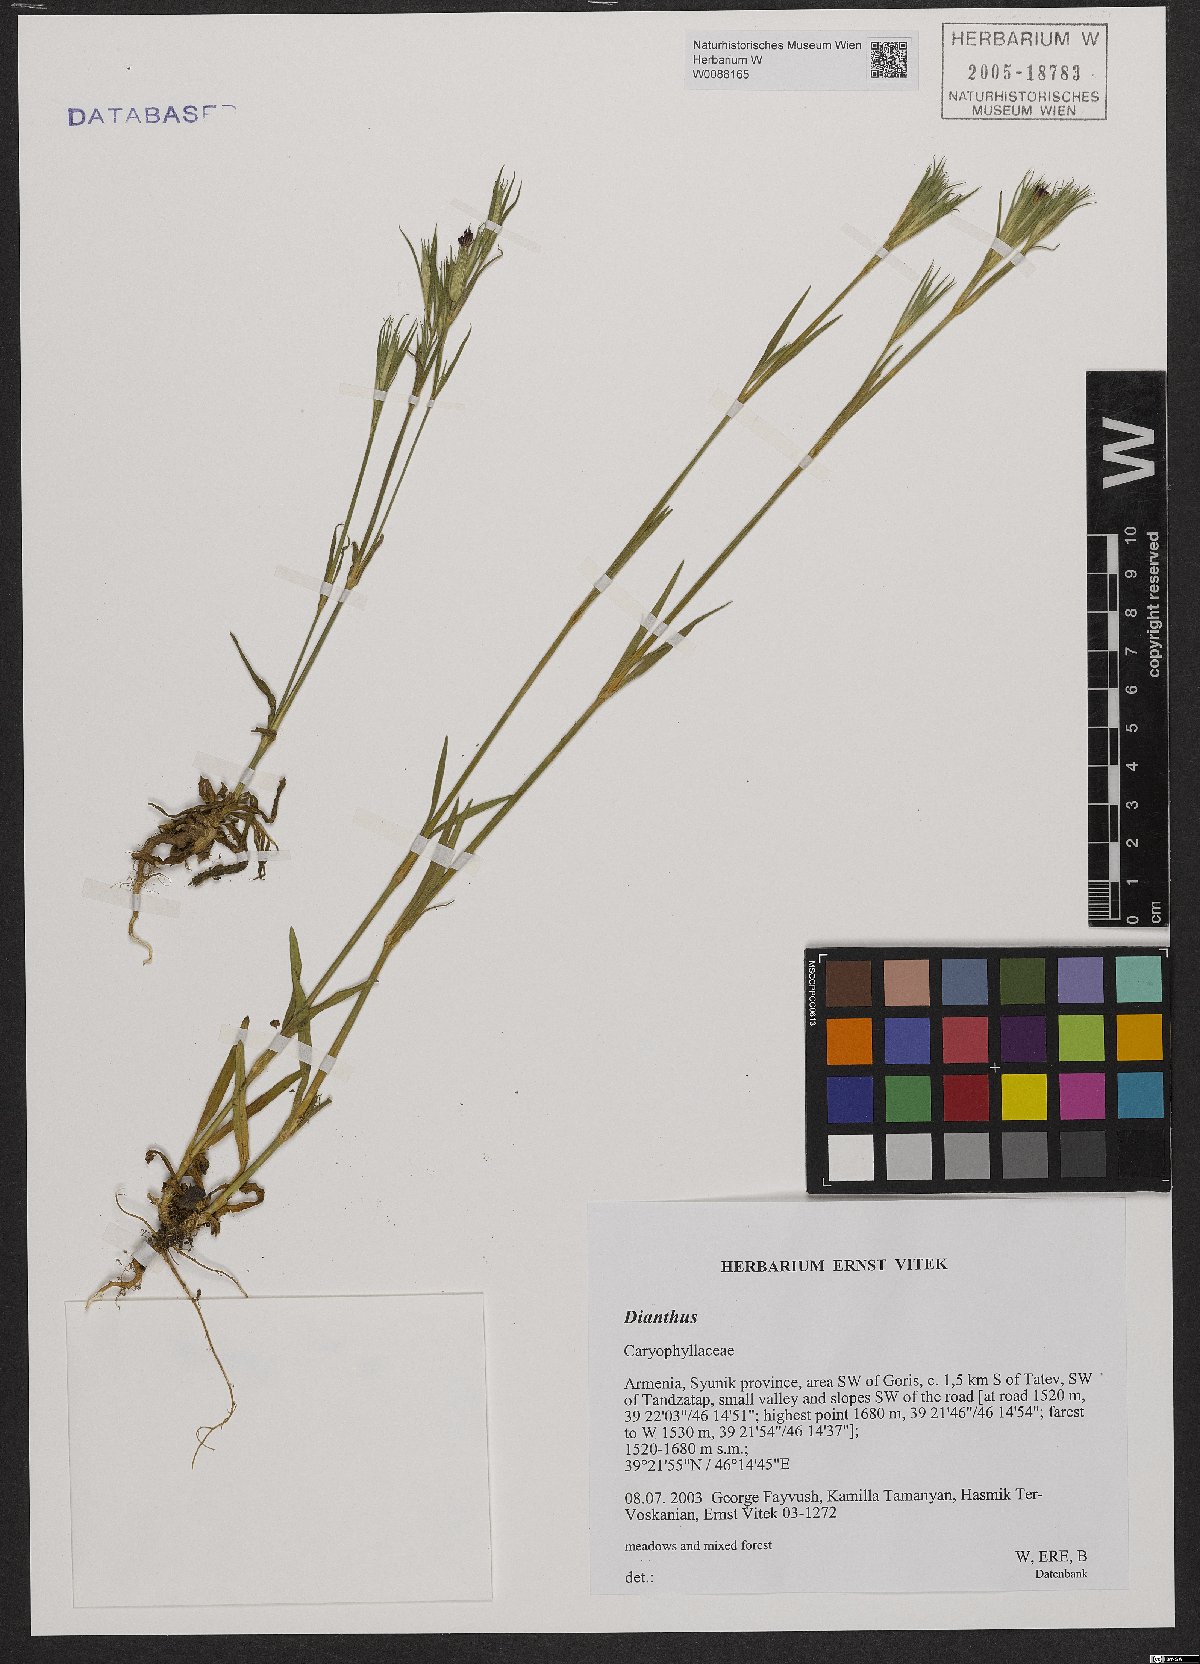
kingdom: Plantae
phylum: Tracheophyta
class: Magnoliopsida
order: Caryophyllales
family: Caryophyllaceae
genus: Dianthus
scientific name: Dianthus
